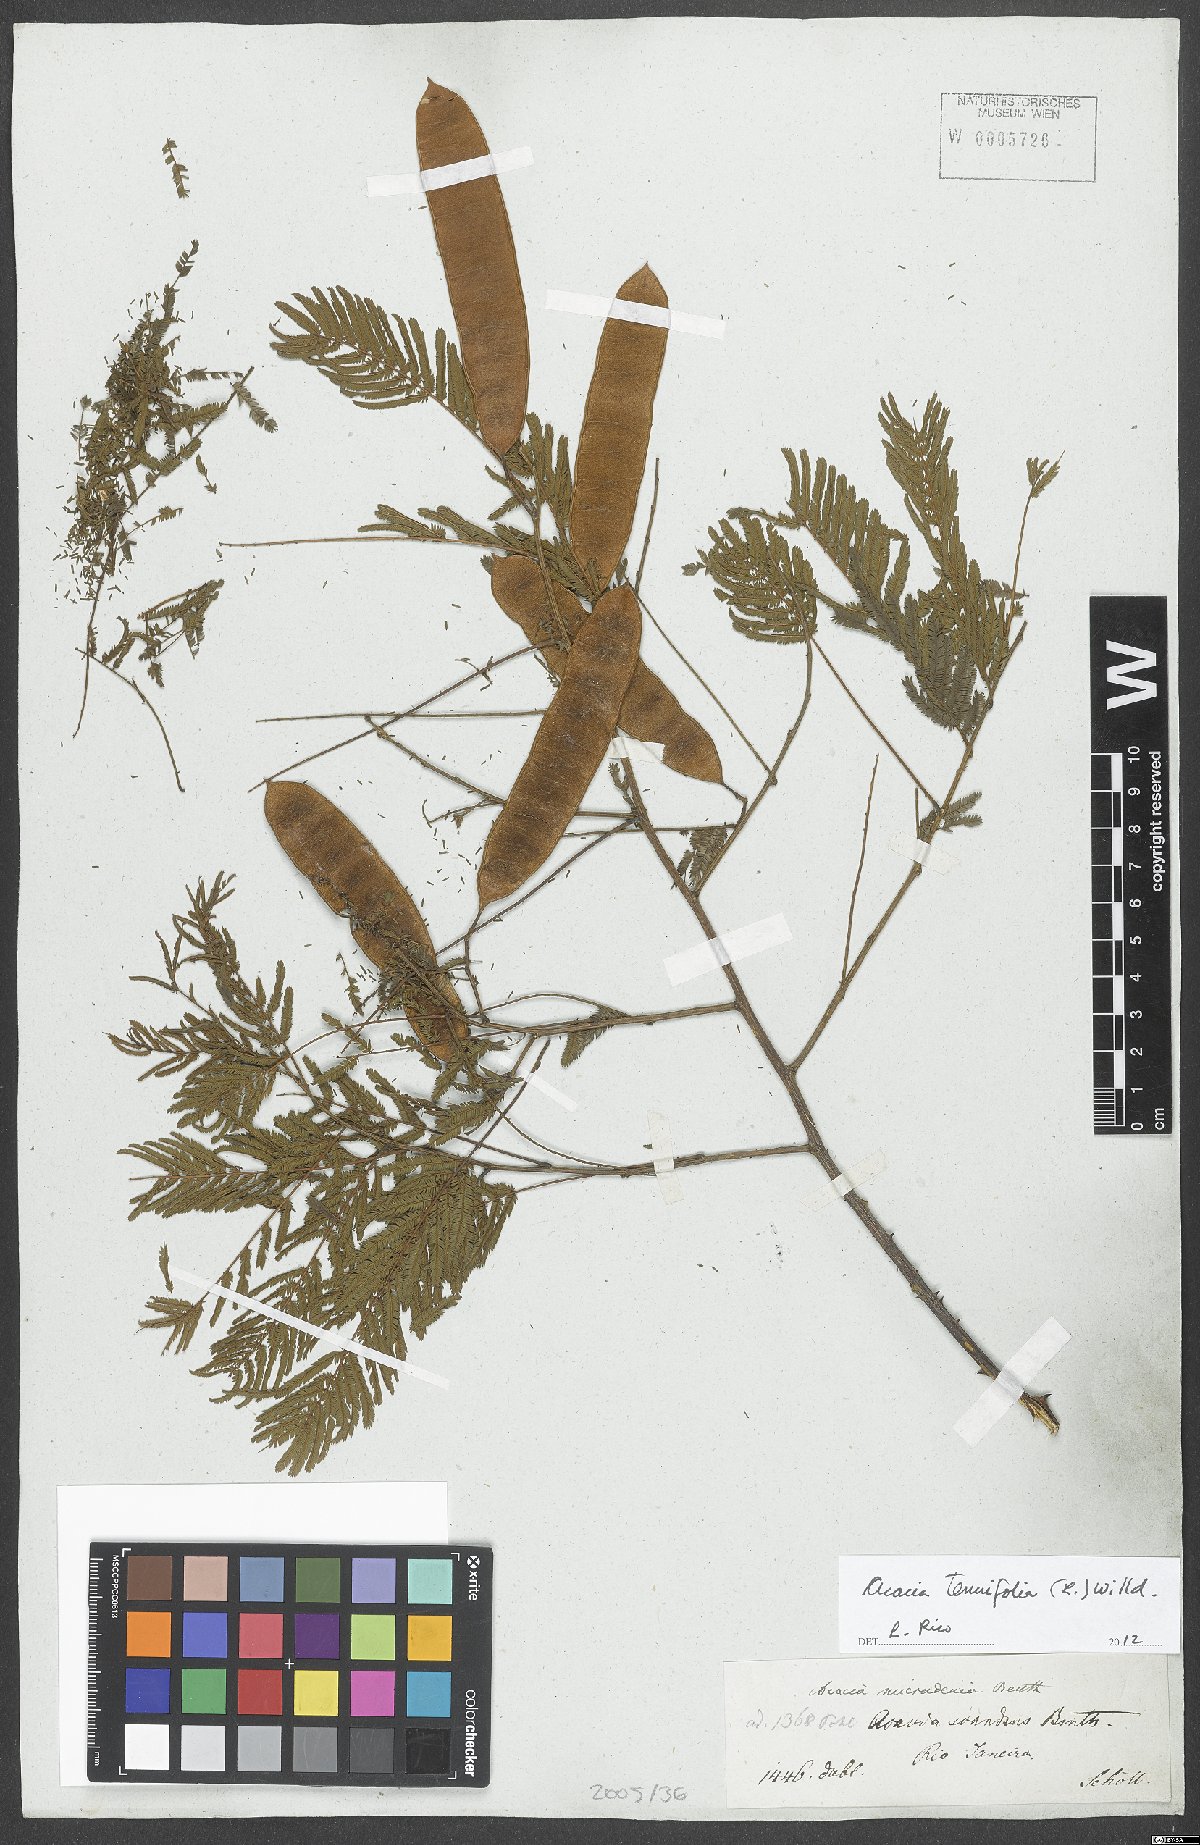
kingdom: Plantae
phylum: Tracheophyta
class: Magnoliopsida
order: Fabales
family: Fabaceae
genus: Senegalia
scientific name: Senegalia tenuifolia
